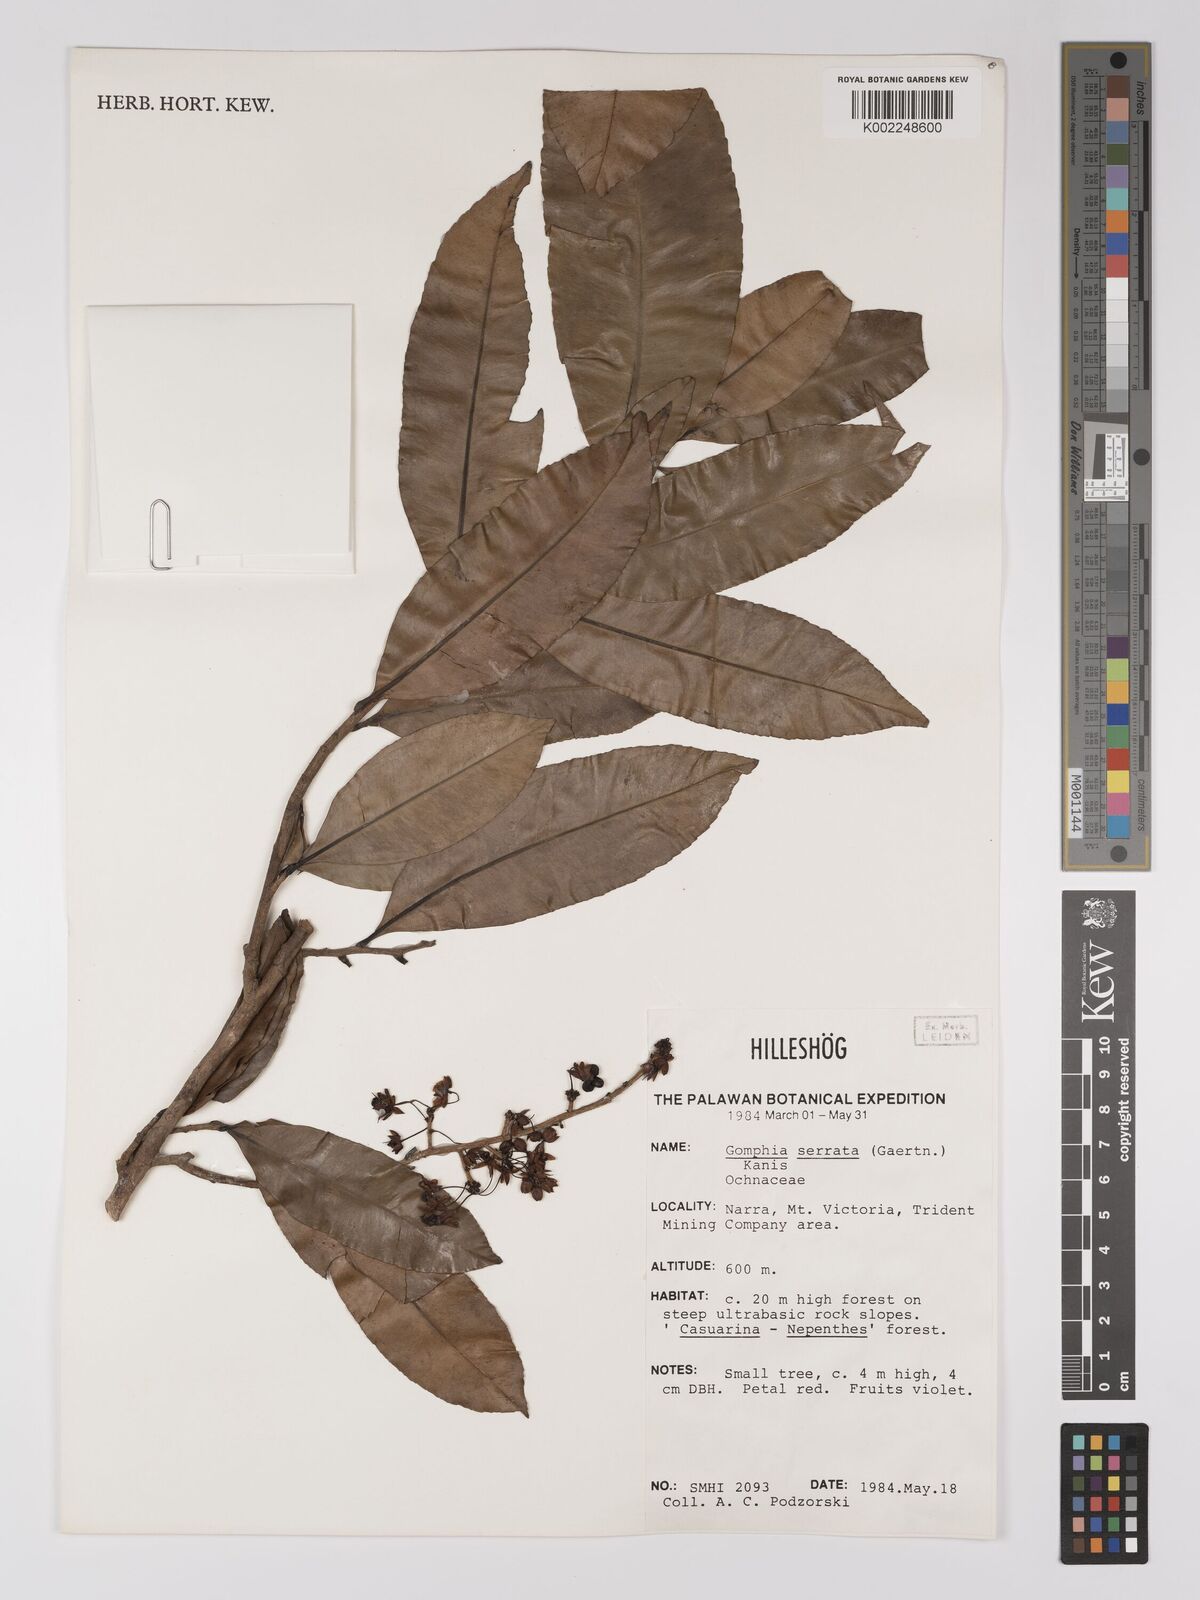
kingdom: Plantae
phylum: Tracheophyta
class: Magnoliopsida
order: Malpighiales
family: Ochnaceae
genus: Gomphia
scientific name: Gomphia serrata
